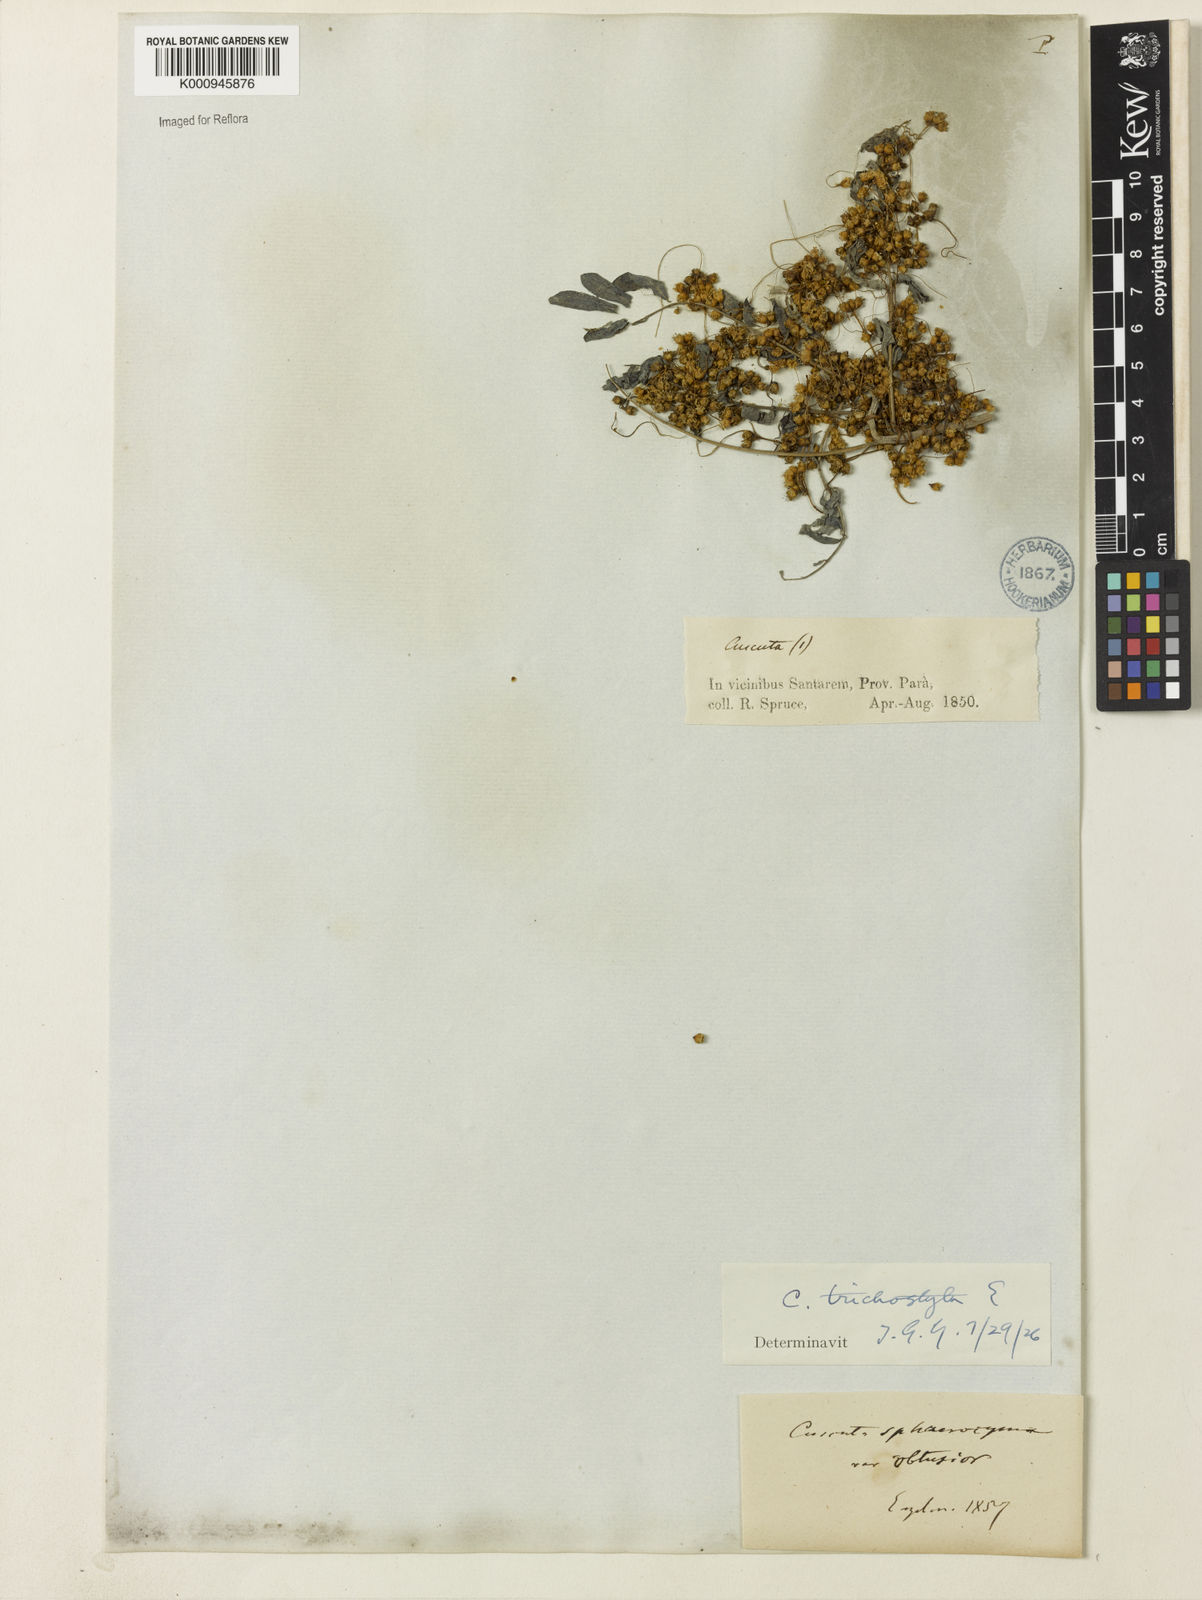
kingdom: Plantae
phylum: Tracheophyta
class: Magnoliopsida
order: Solanales
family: Convolvulaceae
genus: Cuscuta
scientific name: Cuscuta xanthochortos
